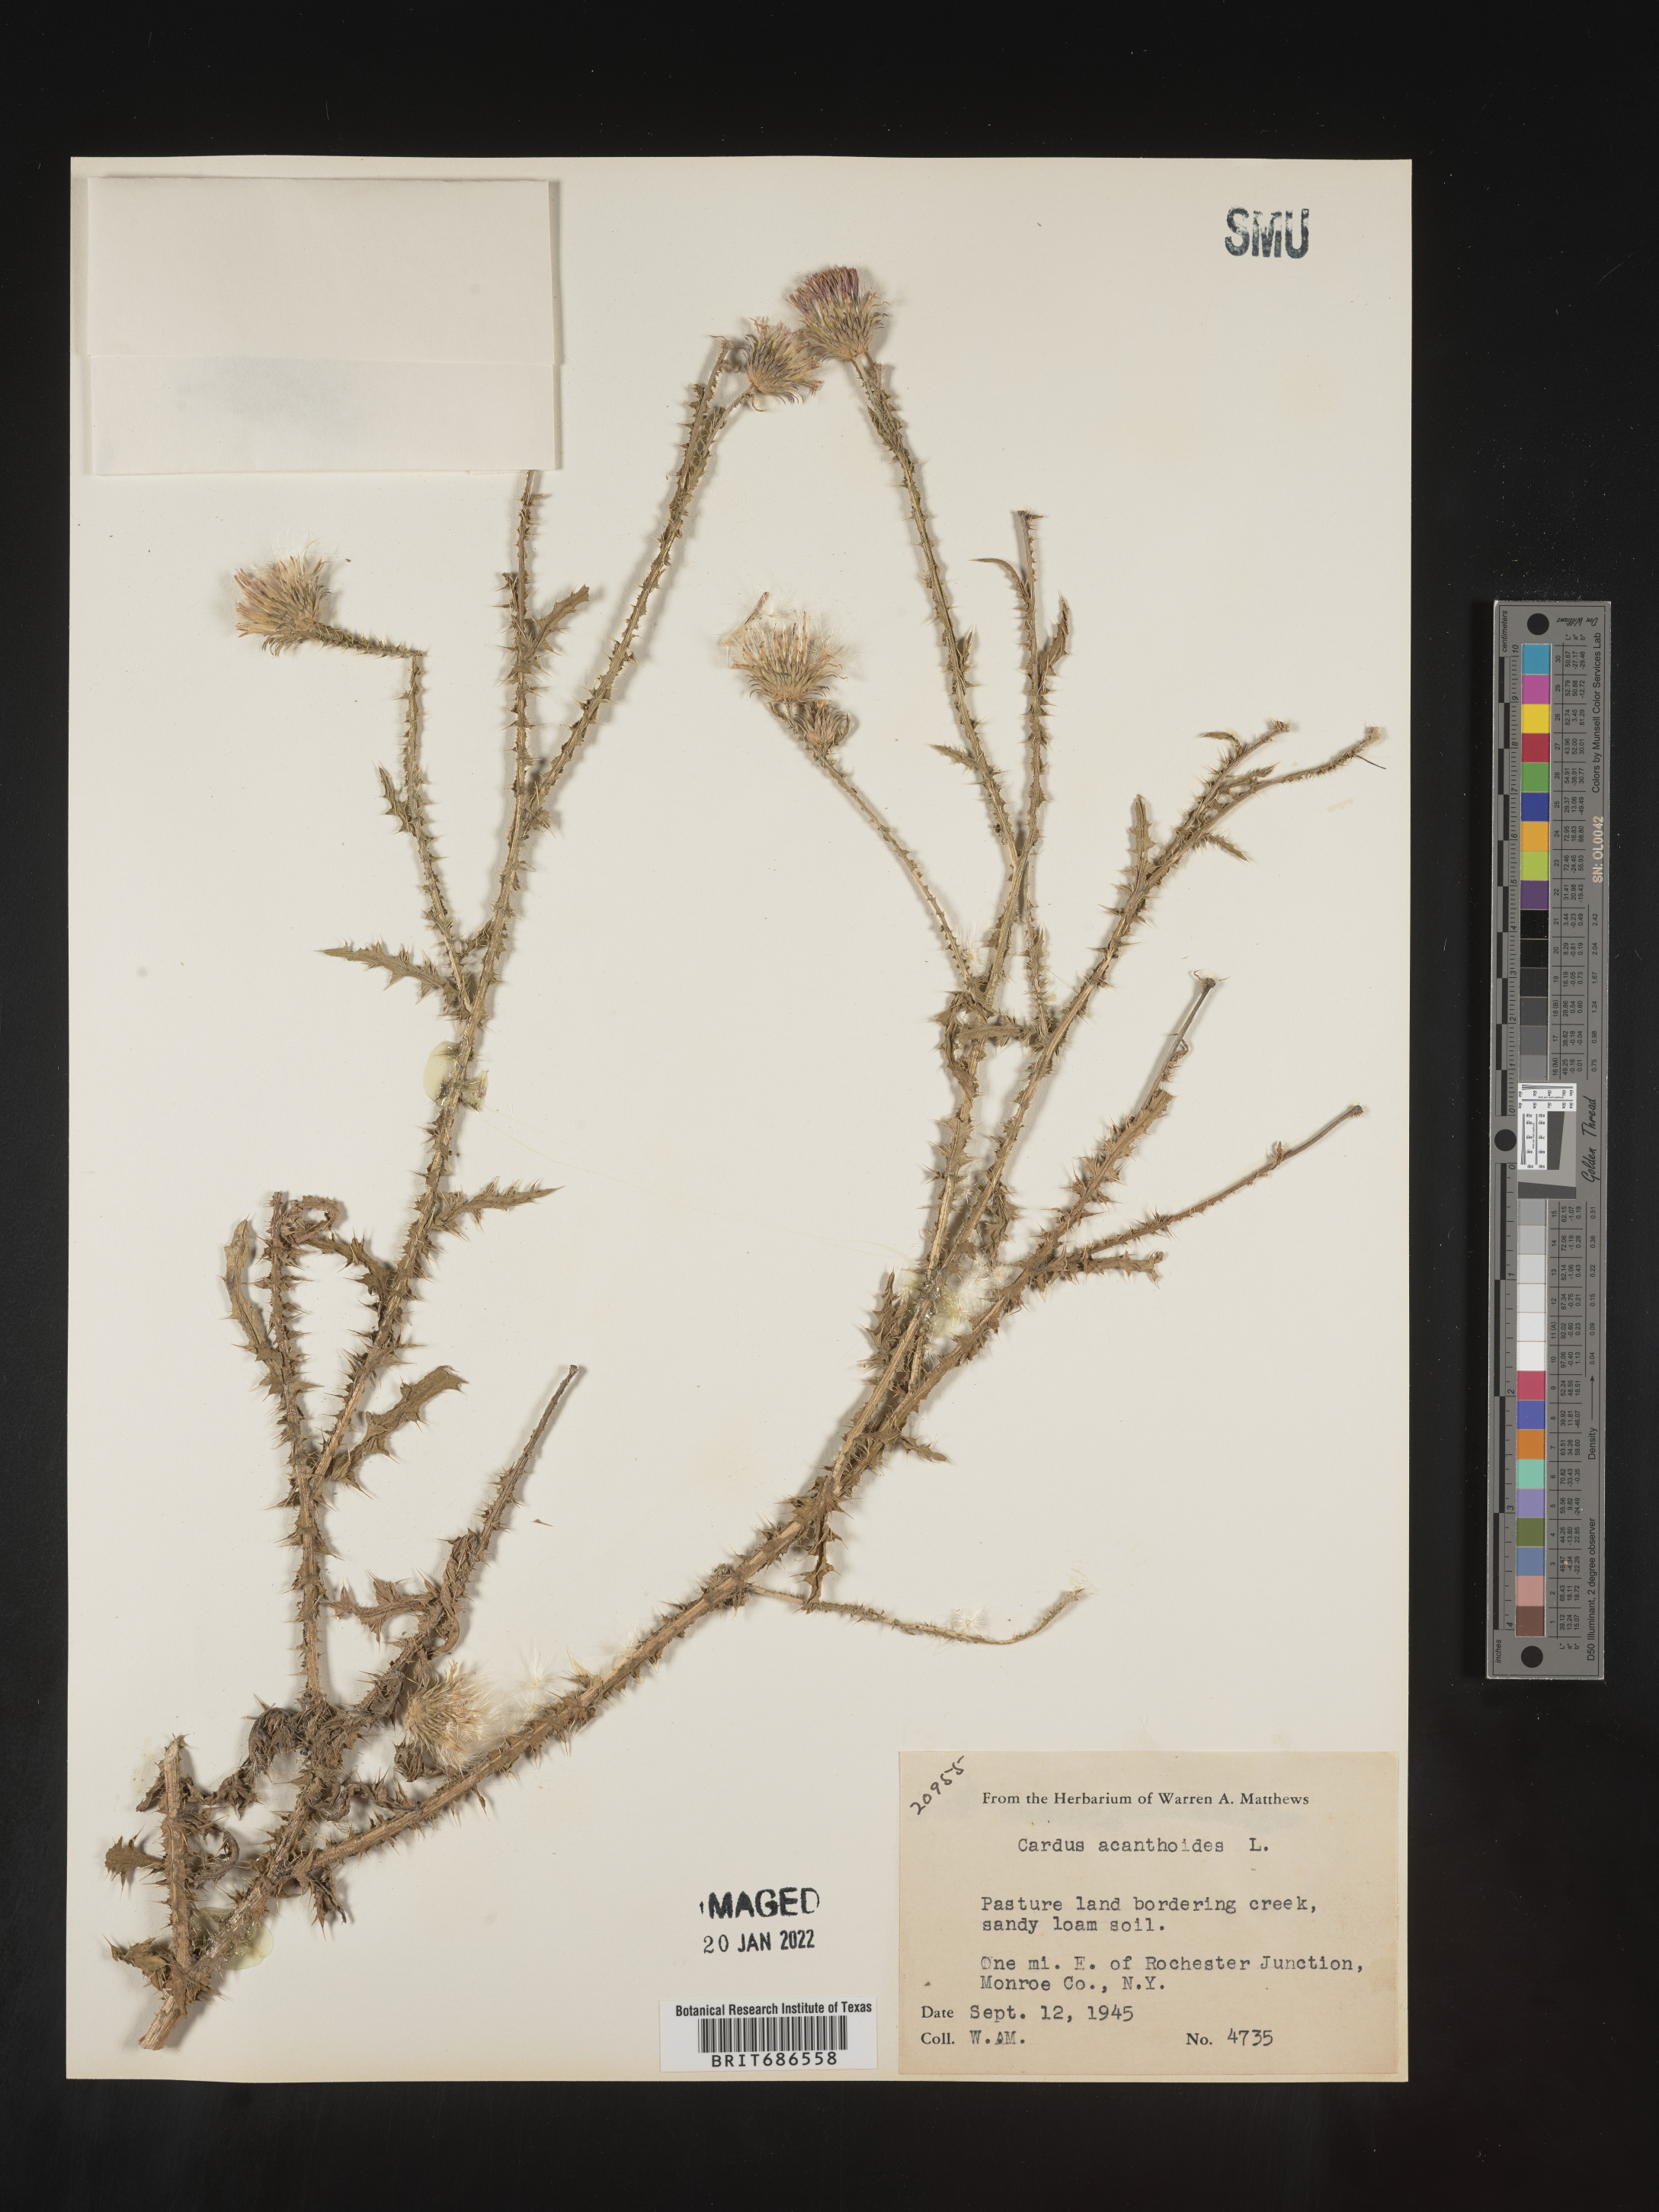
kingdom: Plantae
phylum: Tracheophyta
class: Magnoliopsida
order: Asterales
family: Asteraceae
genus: Carduus
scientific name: Carduus acanthoides
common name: Plumeless thistle
